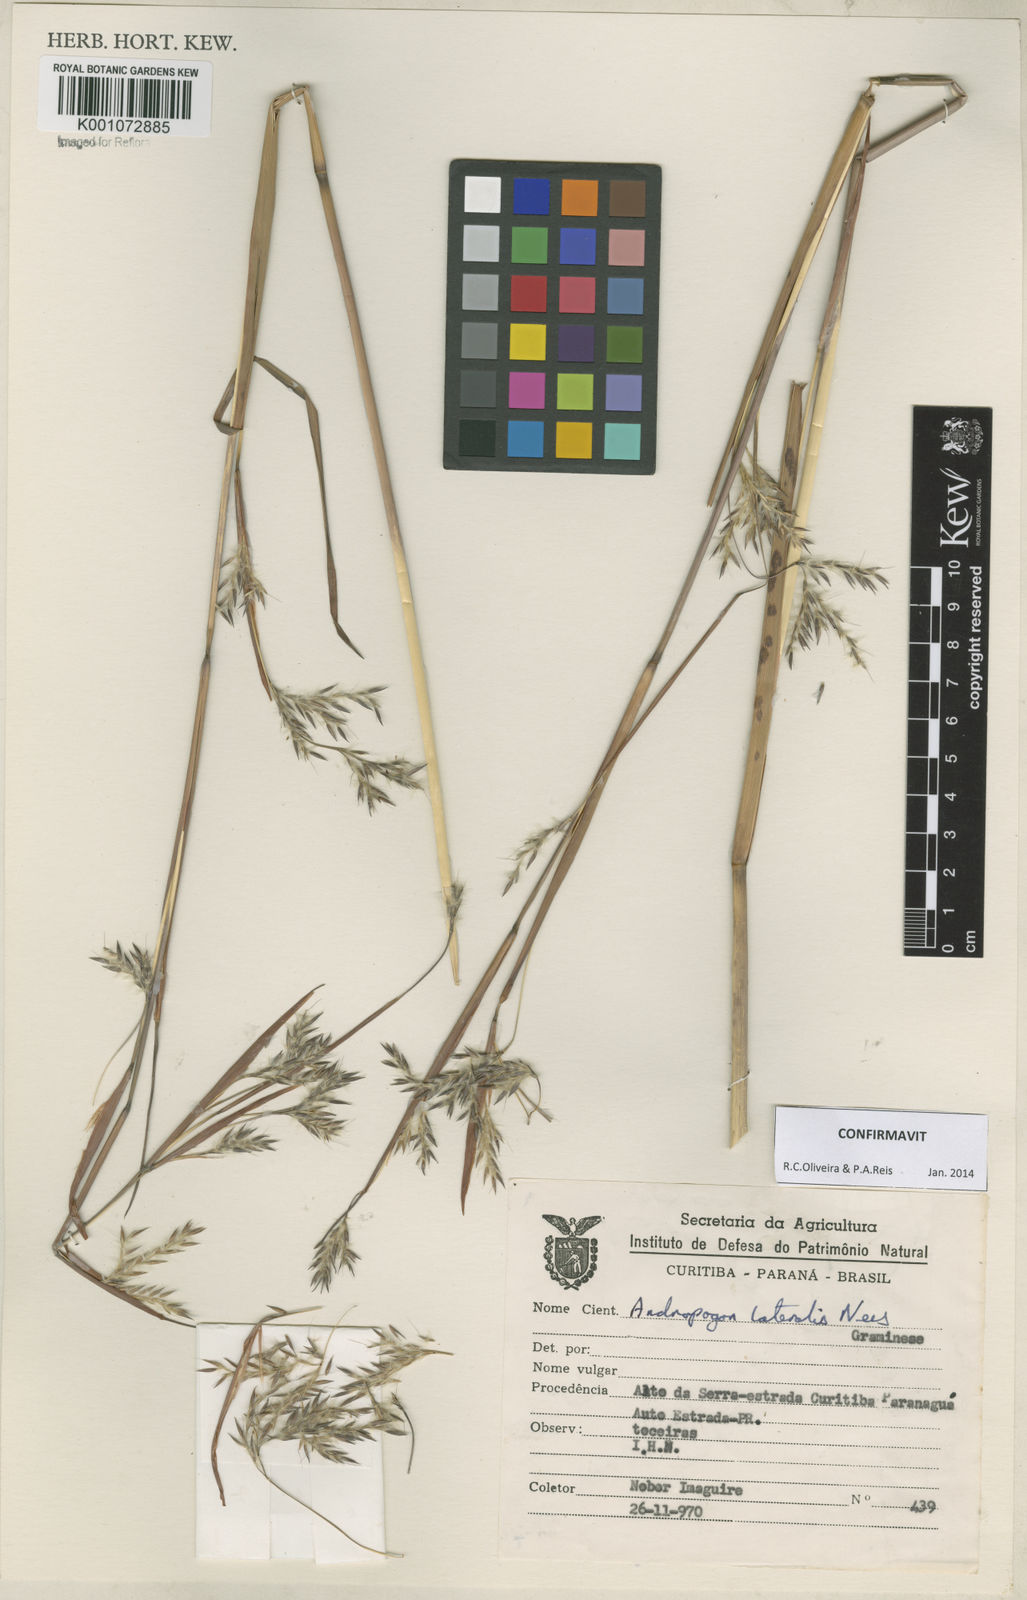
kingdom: Plantae
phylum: Tracheophyta
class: Liliopsida
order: Poales
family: Poaceae
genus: Andropogon
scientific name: Andropogon lateralis
